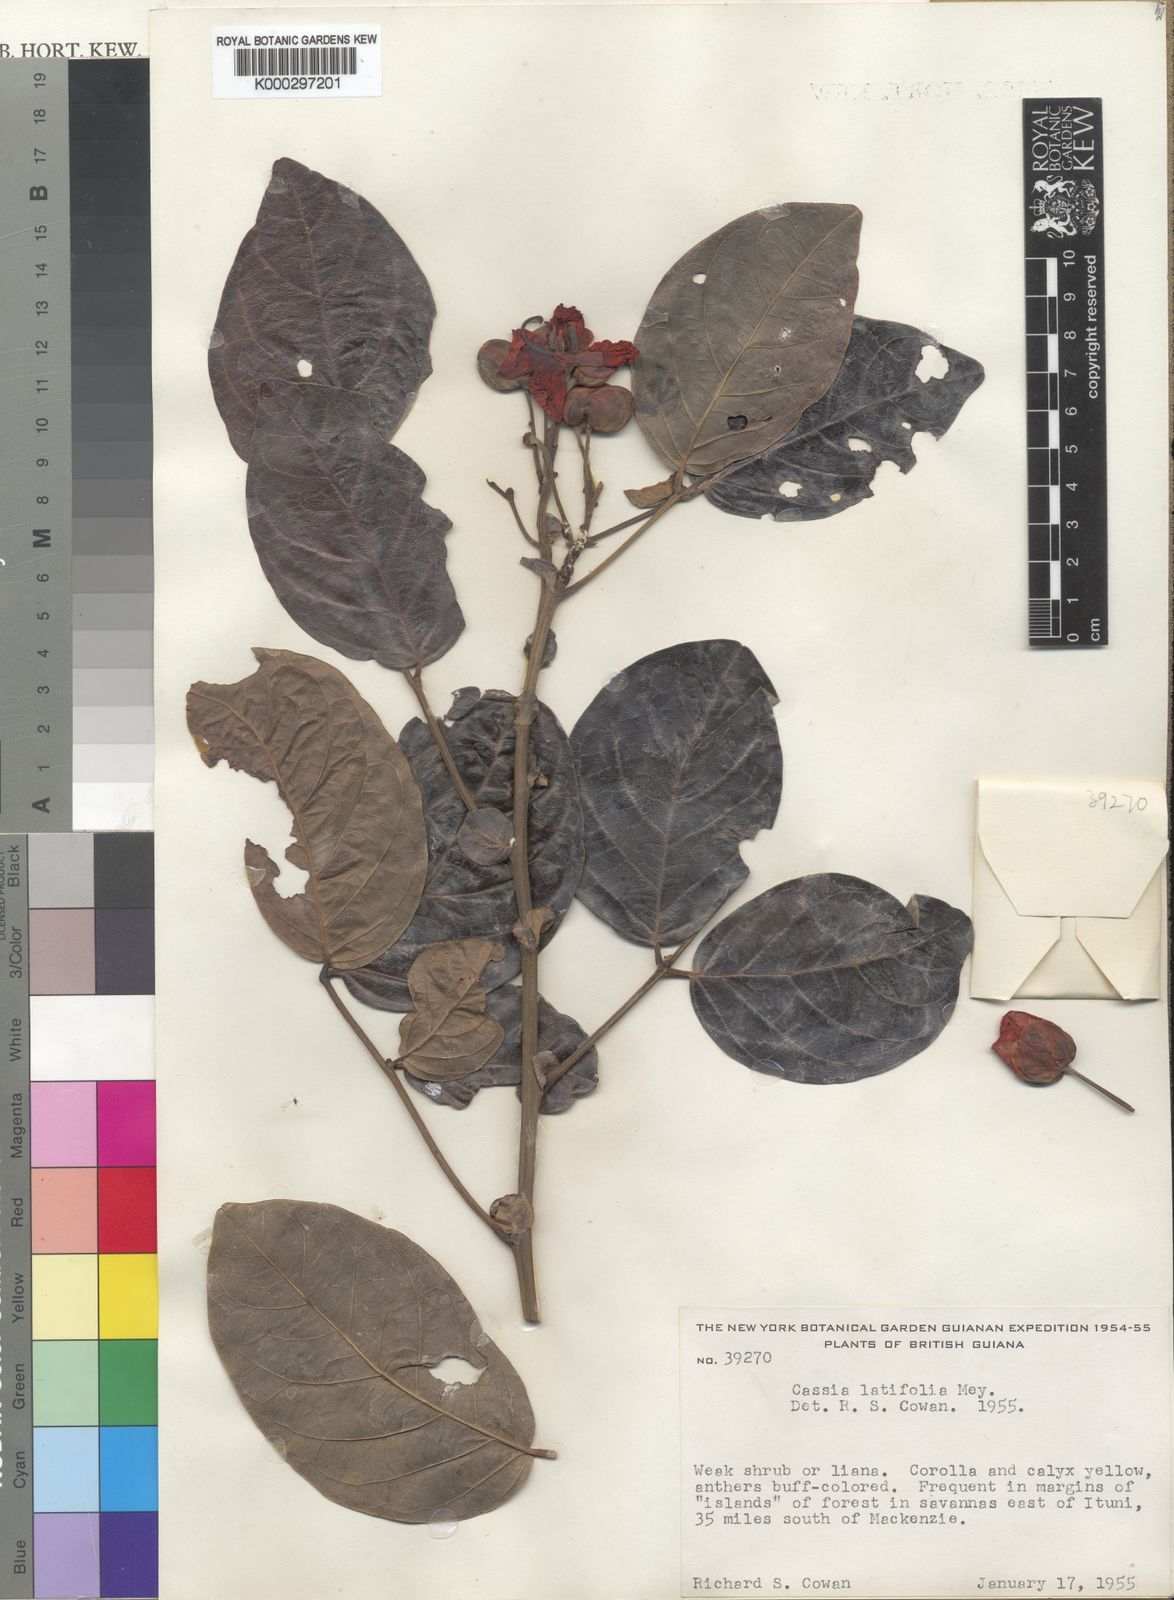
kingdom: Plantae
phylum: Tracheophyta
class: Magnoliopsida
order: Fabales
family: Fabaceae
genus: Senna
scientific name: Senna latifolia
